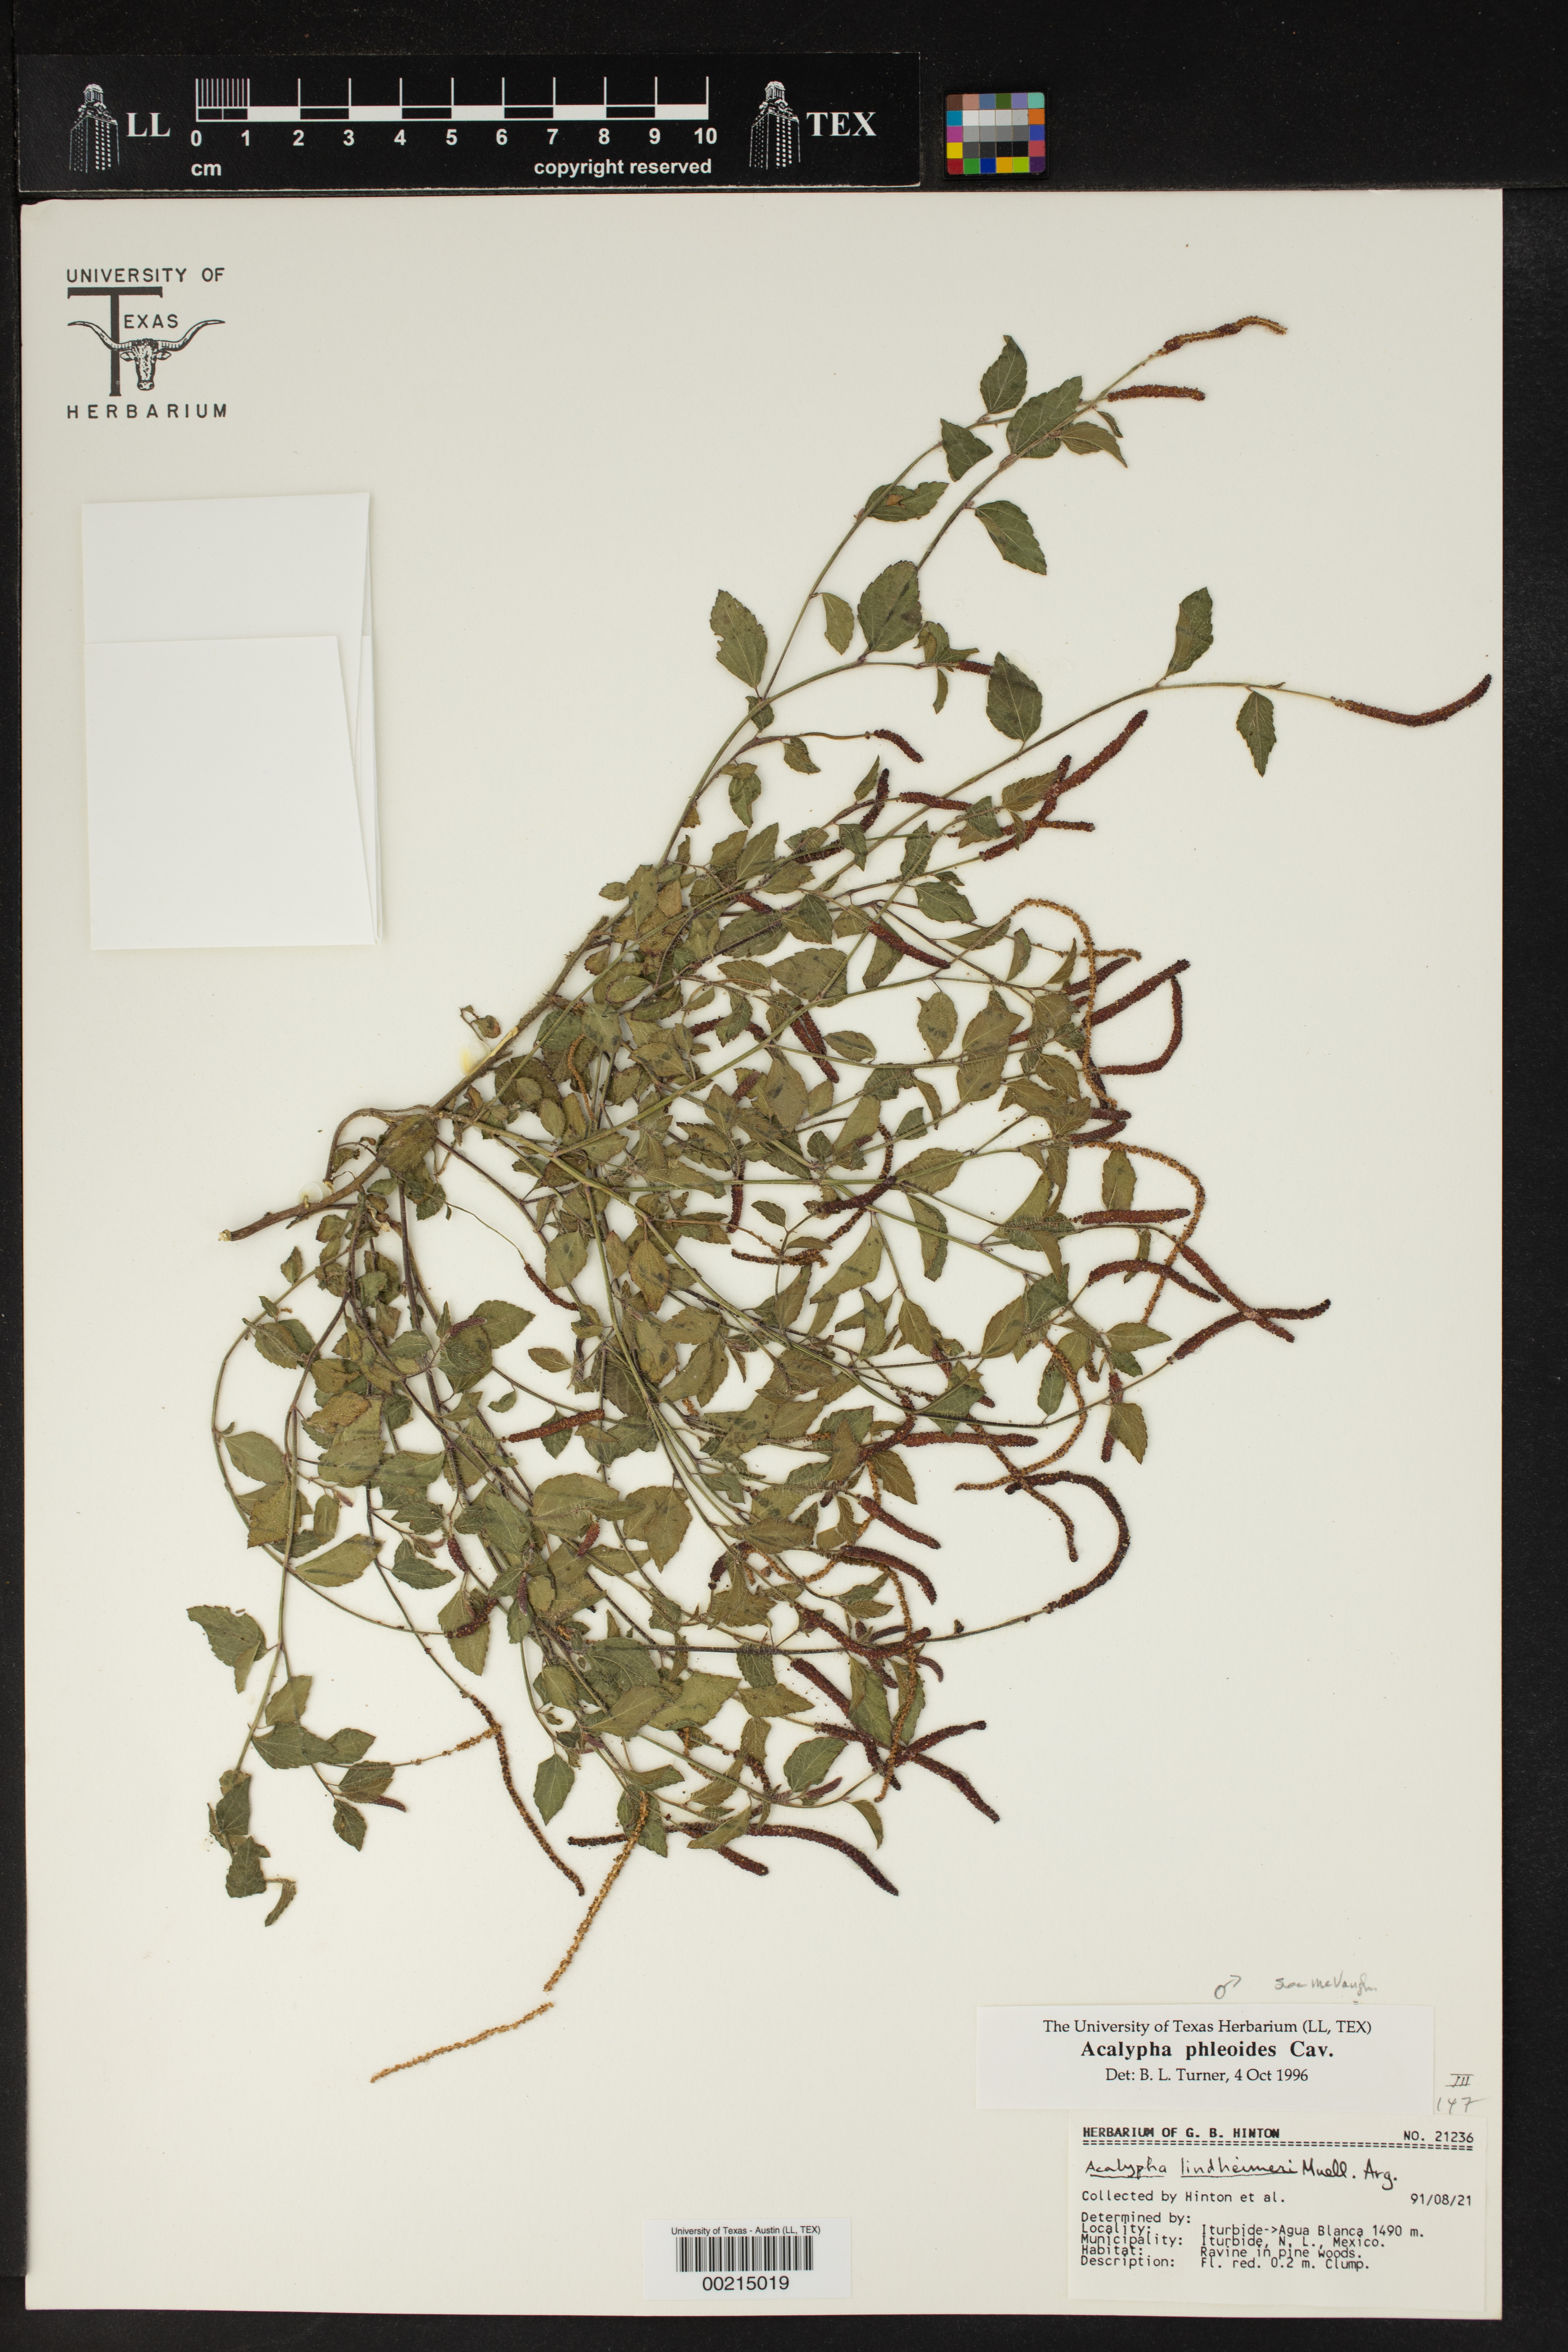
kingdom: Plantae
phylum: Tracheophyta
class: Magnoliopsida
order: Malpighiales
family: Euphorbiaceae
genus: Acalypha
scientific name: Acalypha phleoides
